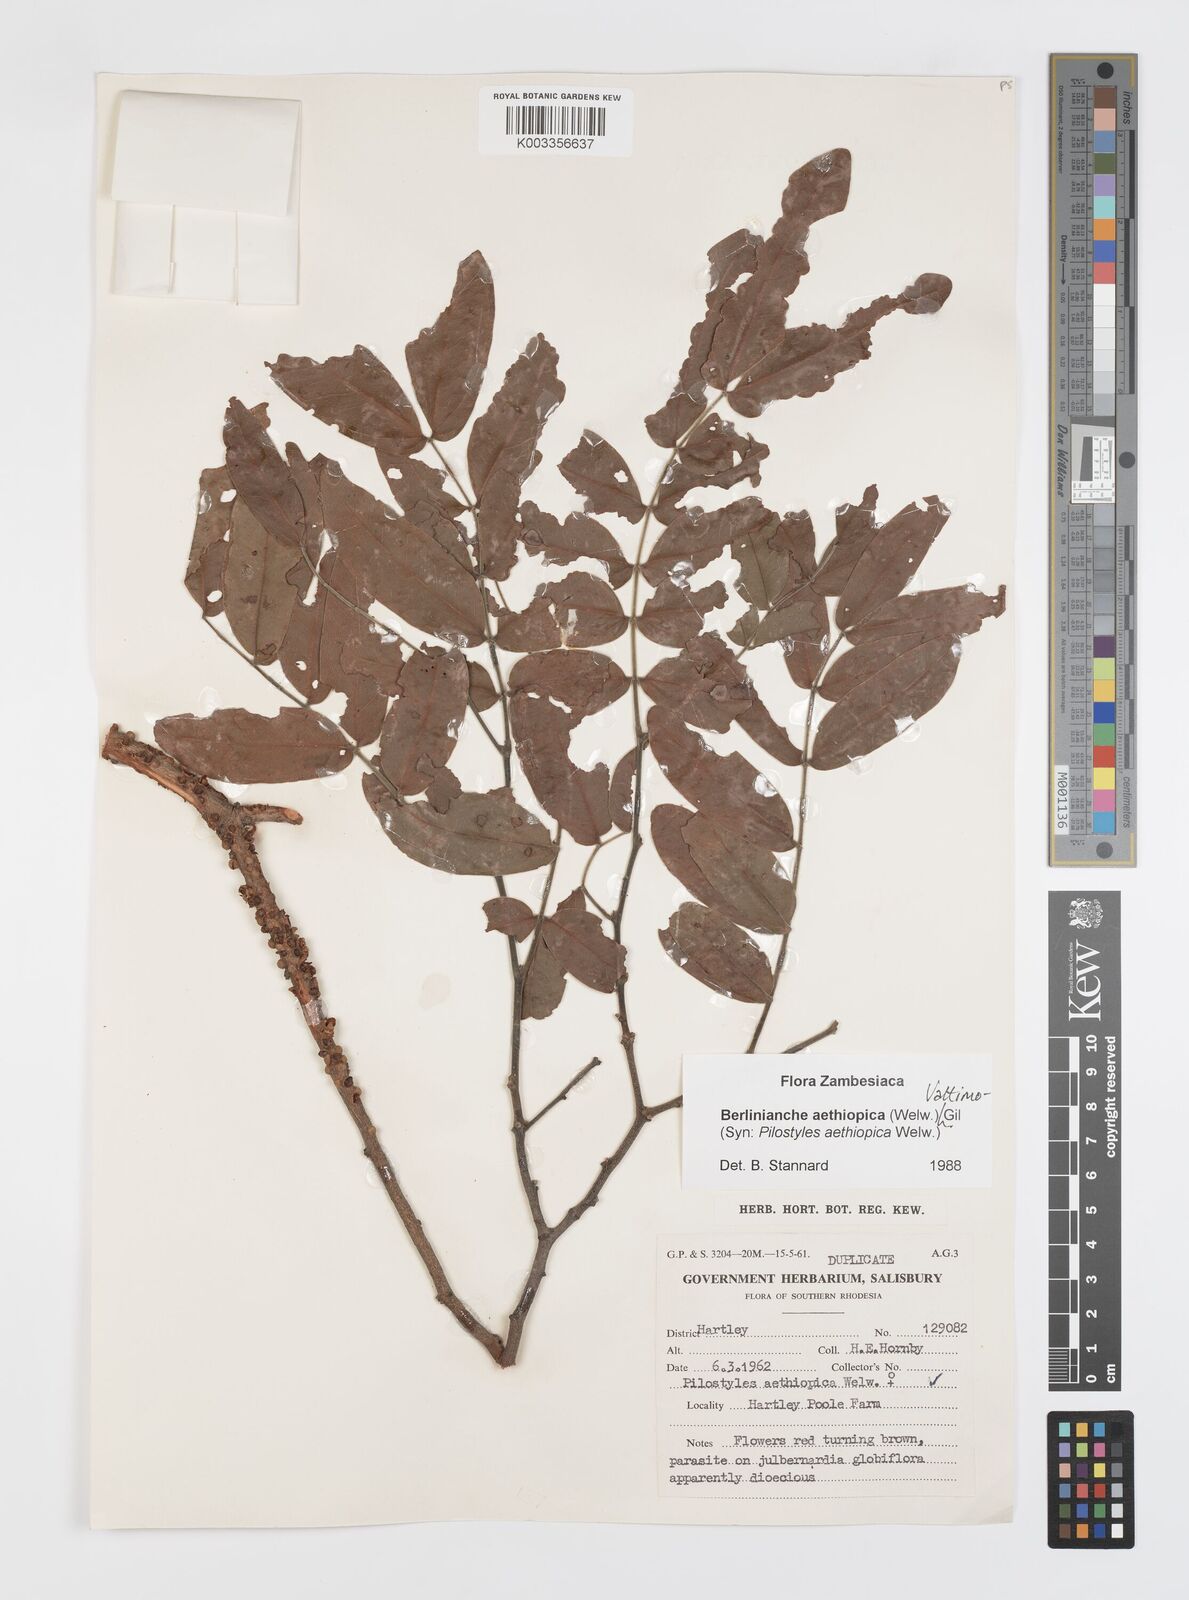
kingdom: Plantae
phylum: Tracheophyta
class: Magnoliopsida
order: Cucurbitales
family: Apodanthaceae
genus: Pilostyles
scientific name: Pilostyles aethiopica
